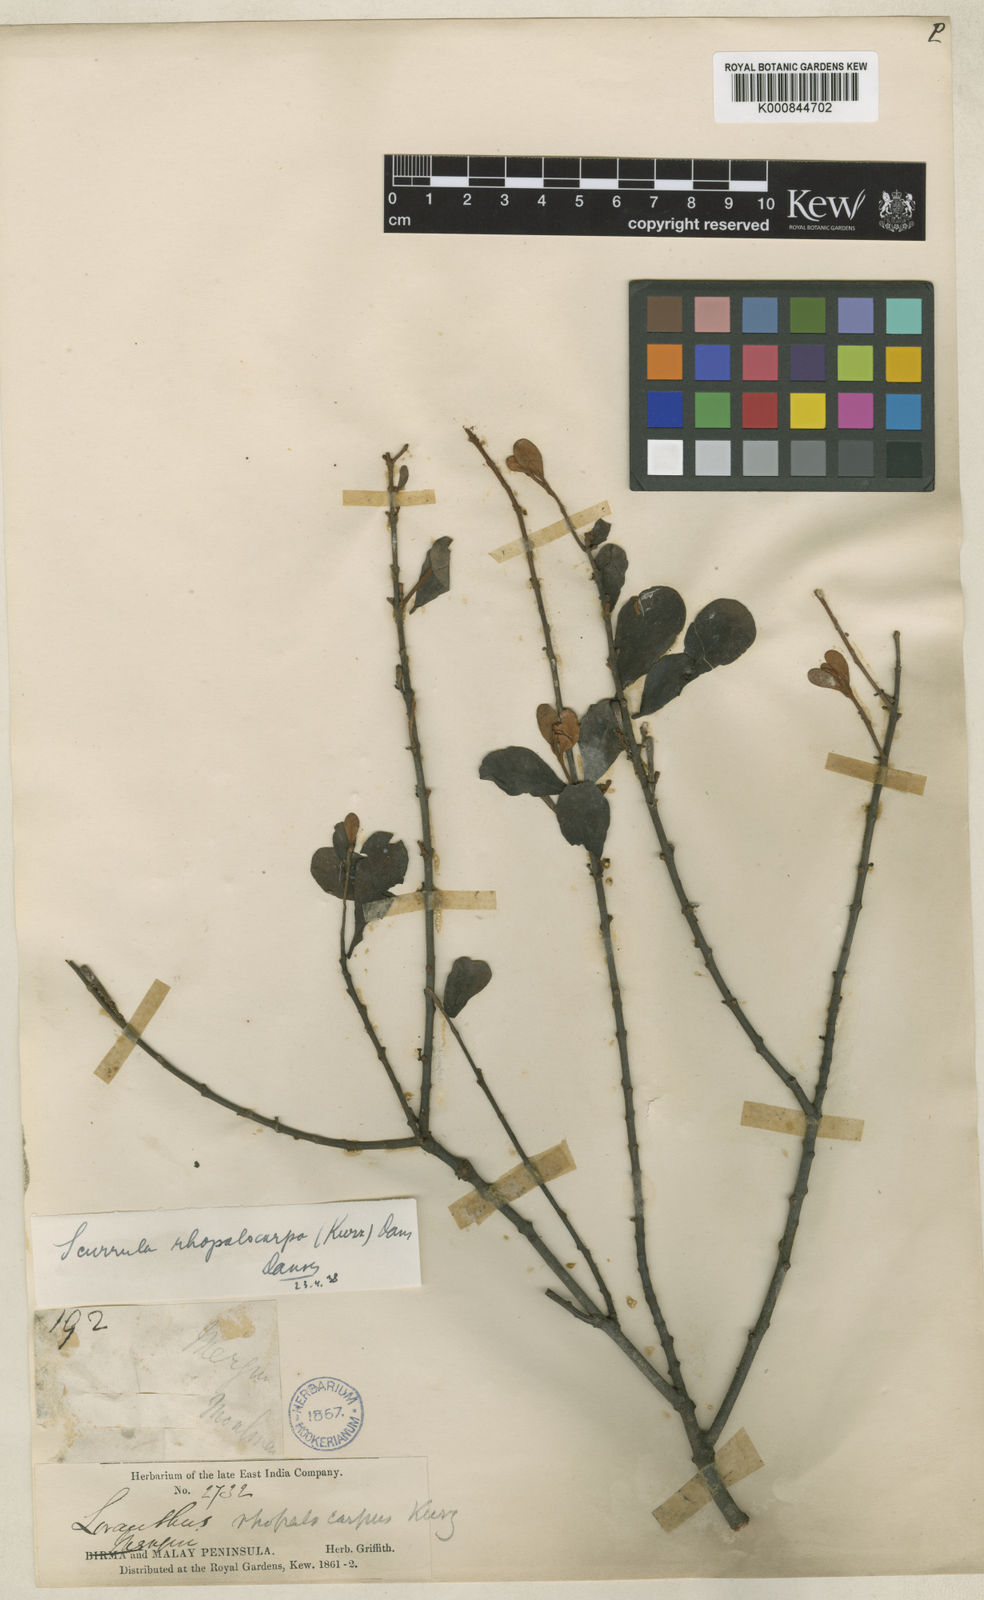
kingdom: Plantae
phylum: Tracheophyta
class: Magnoliopsida
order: Santalales
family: Loranthaceae
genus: Scurrula
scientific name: Scurrula rhopalocarpa
